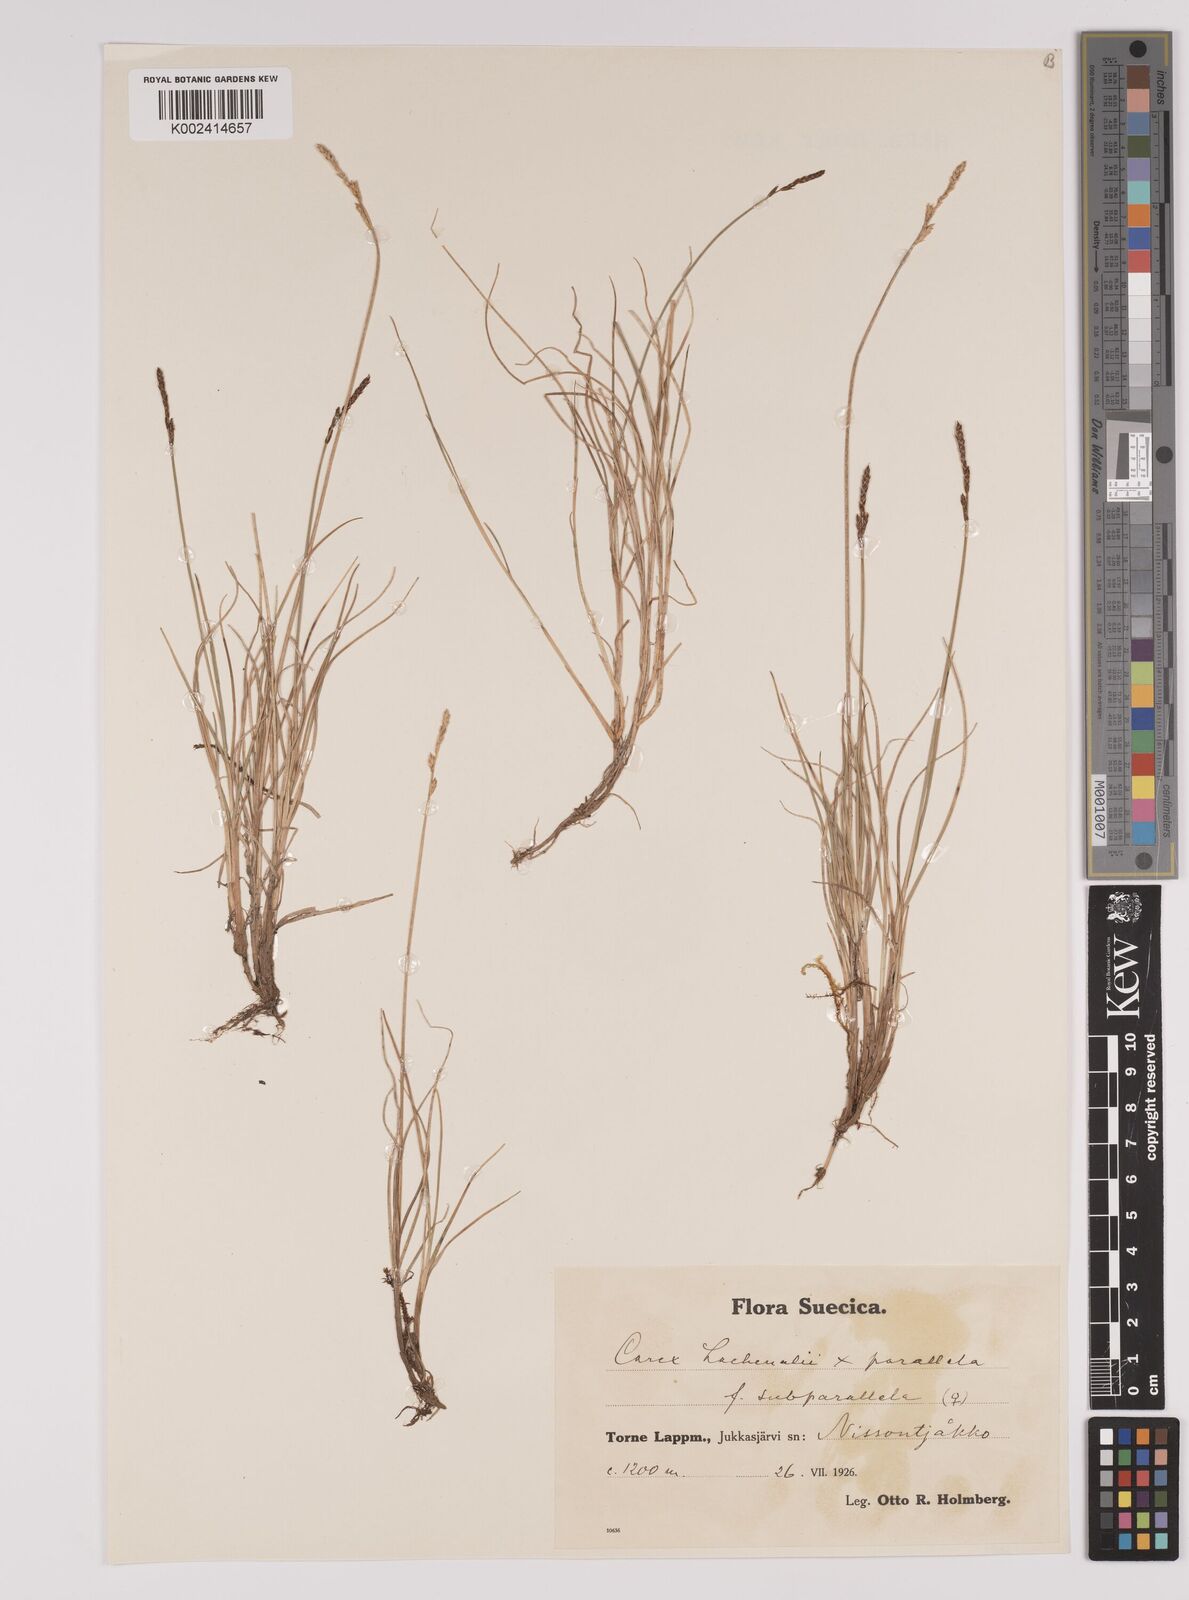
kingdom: Plantae
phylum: Tracheophyta
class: Liliopsida
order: Poales
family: Cyperaceae
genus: Carex
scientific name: Carex parallela
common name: Parallel sedge
